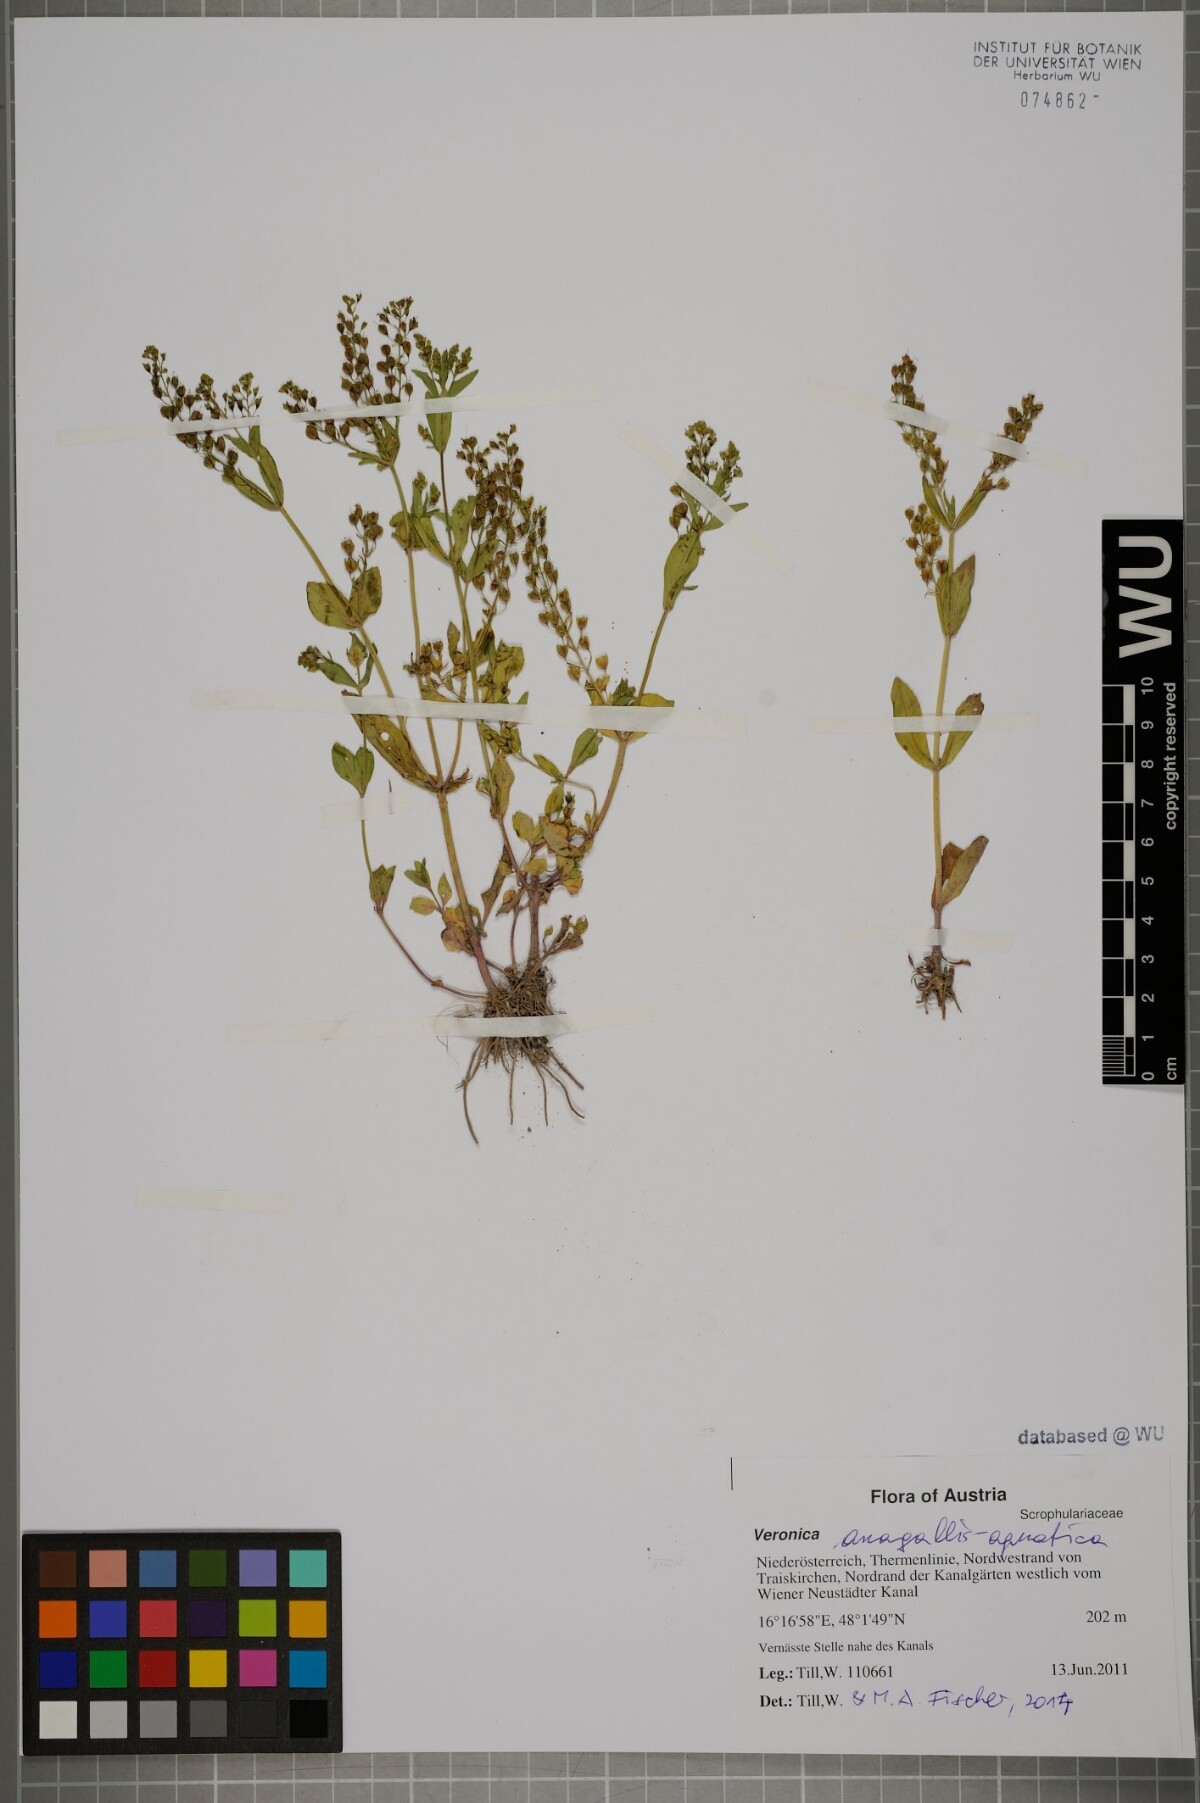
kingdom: Plantae
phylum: Tracheophyta
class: Magnoliopsida
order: Lamiales
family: Plantaginaceae
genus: Veronica
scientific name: Veronica anagallis-aquatica
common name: Water speedwell
